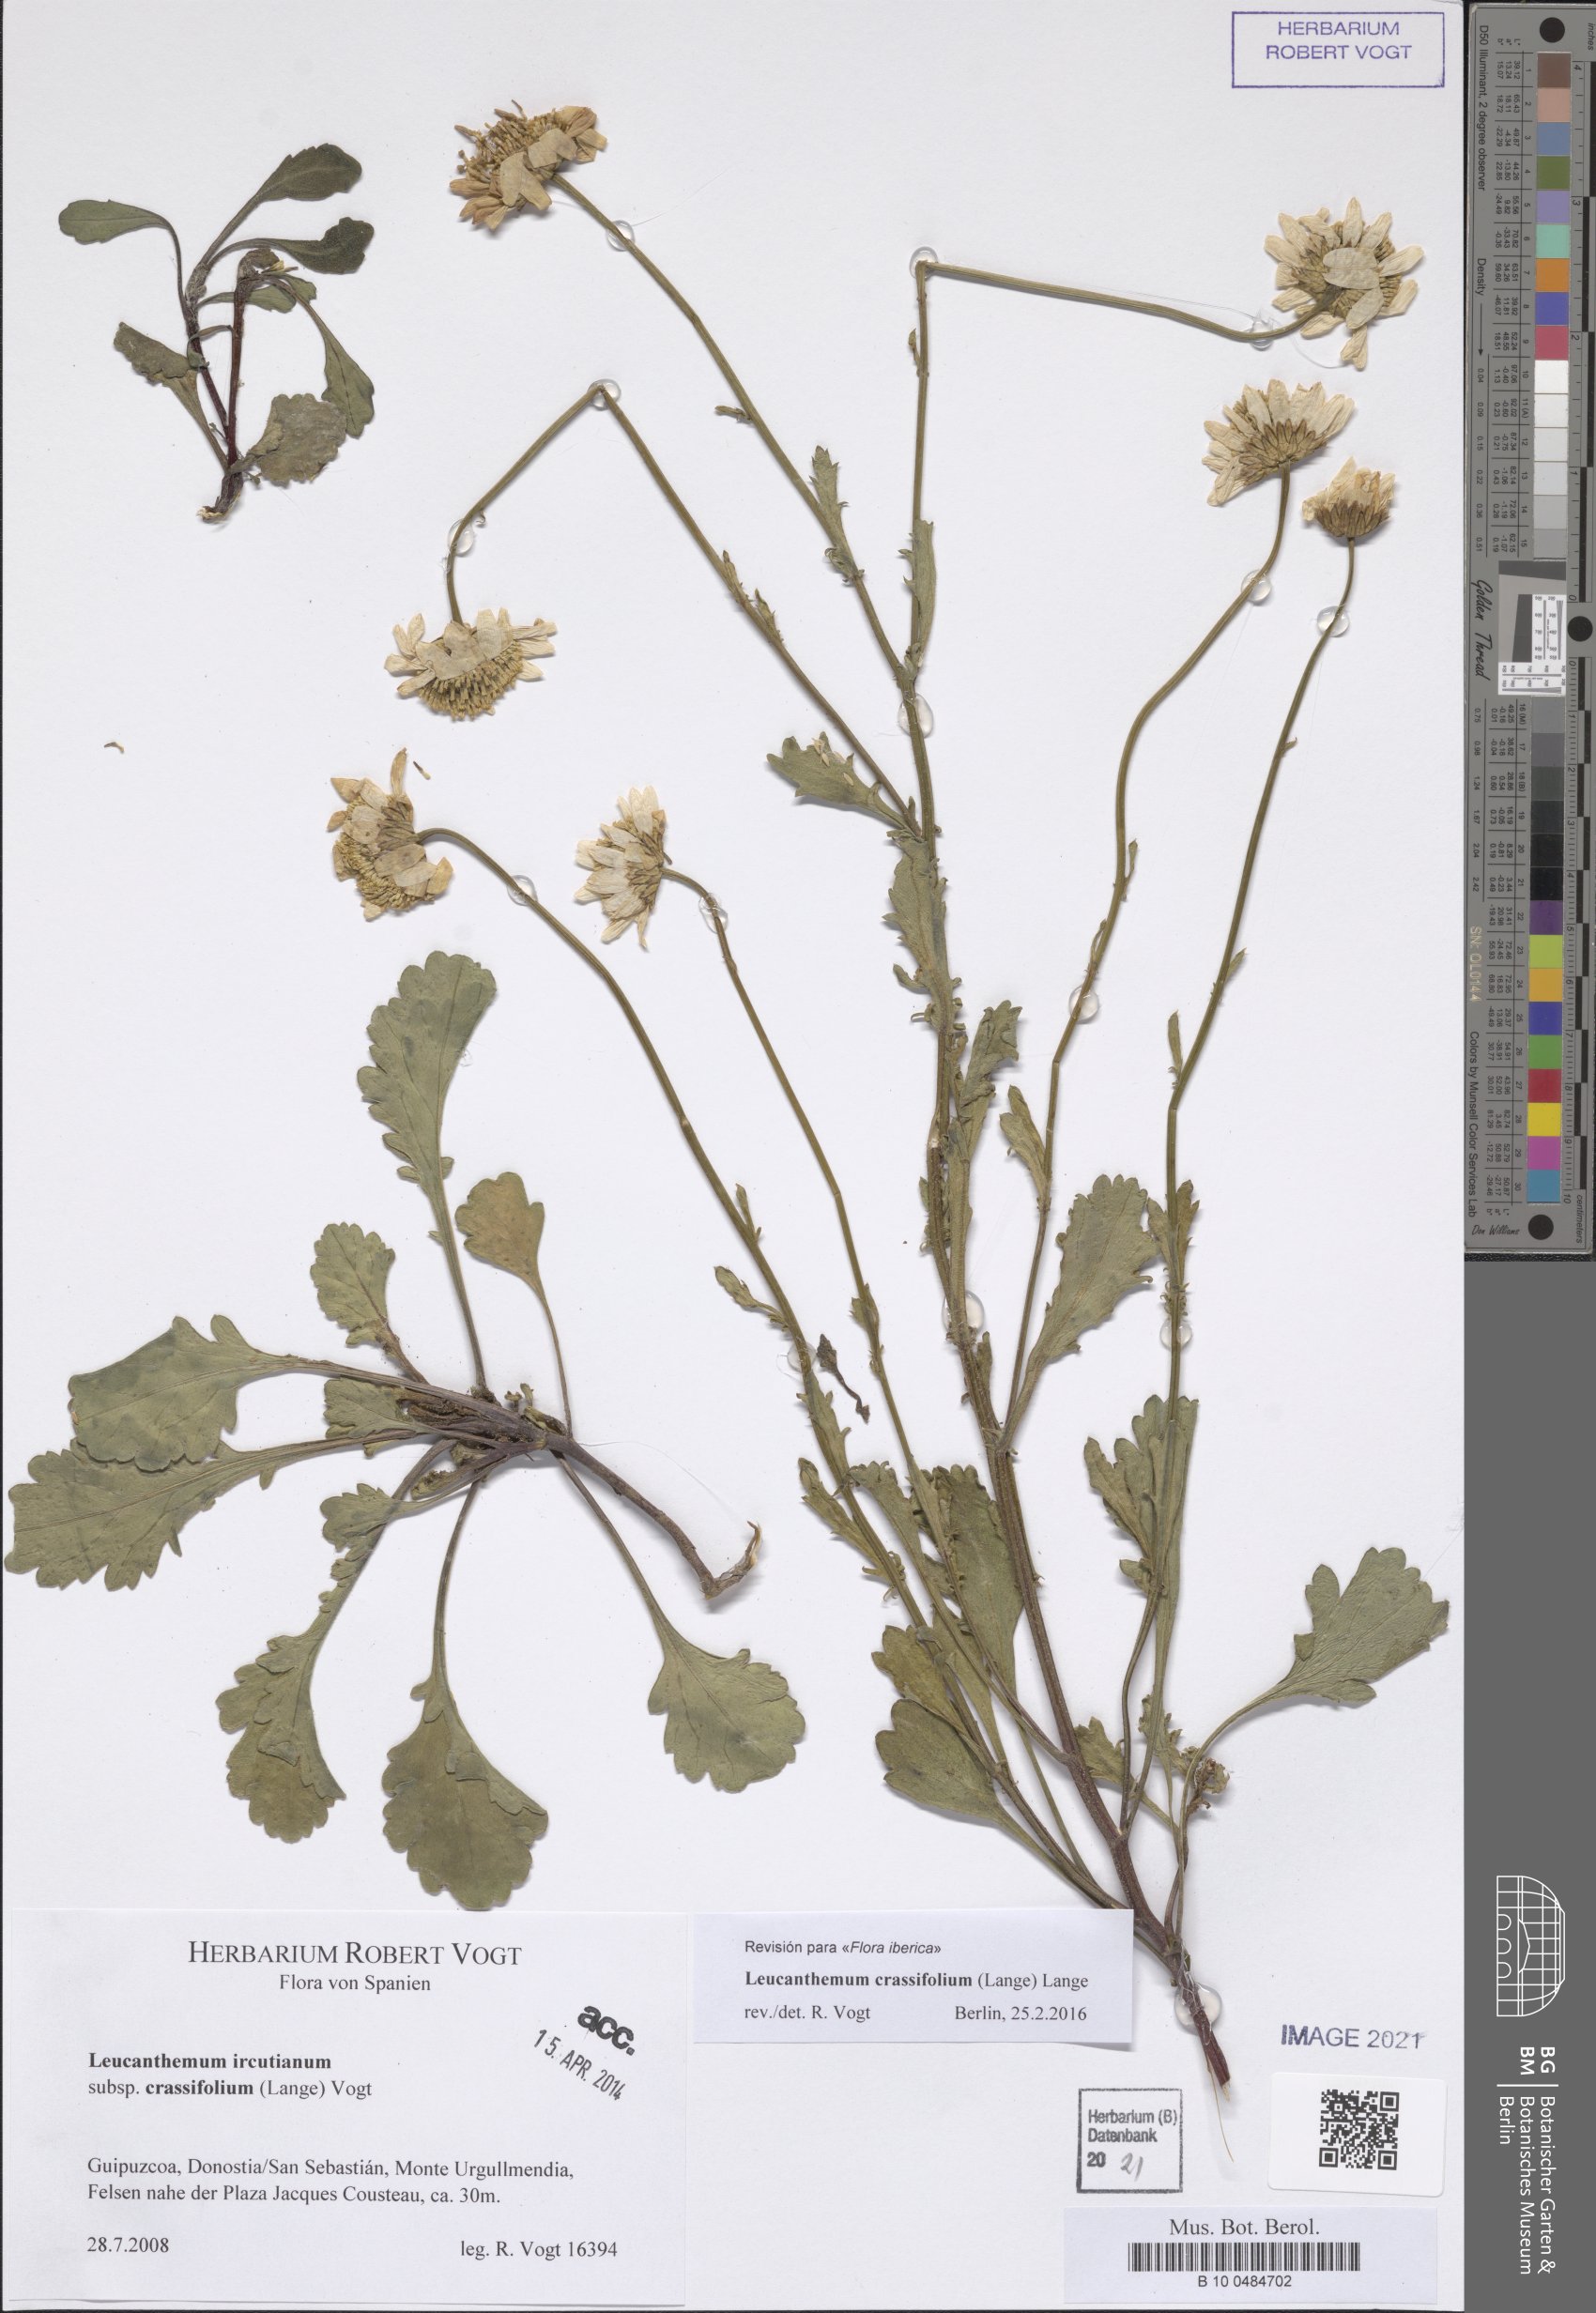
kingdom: Plantae
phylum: Tracheophyta
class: Magnoliopsida
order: Asterales
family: Asteraceae
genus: Leucanthemum
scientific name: Leucanthemum crassifolium
